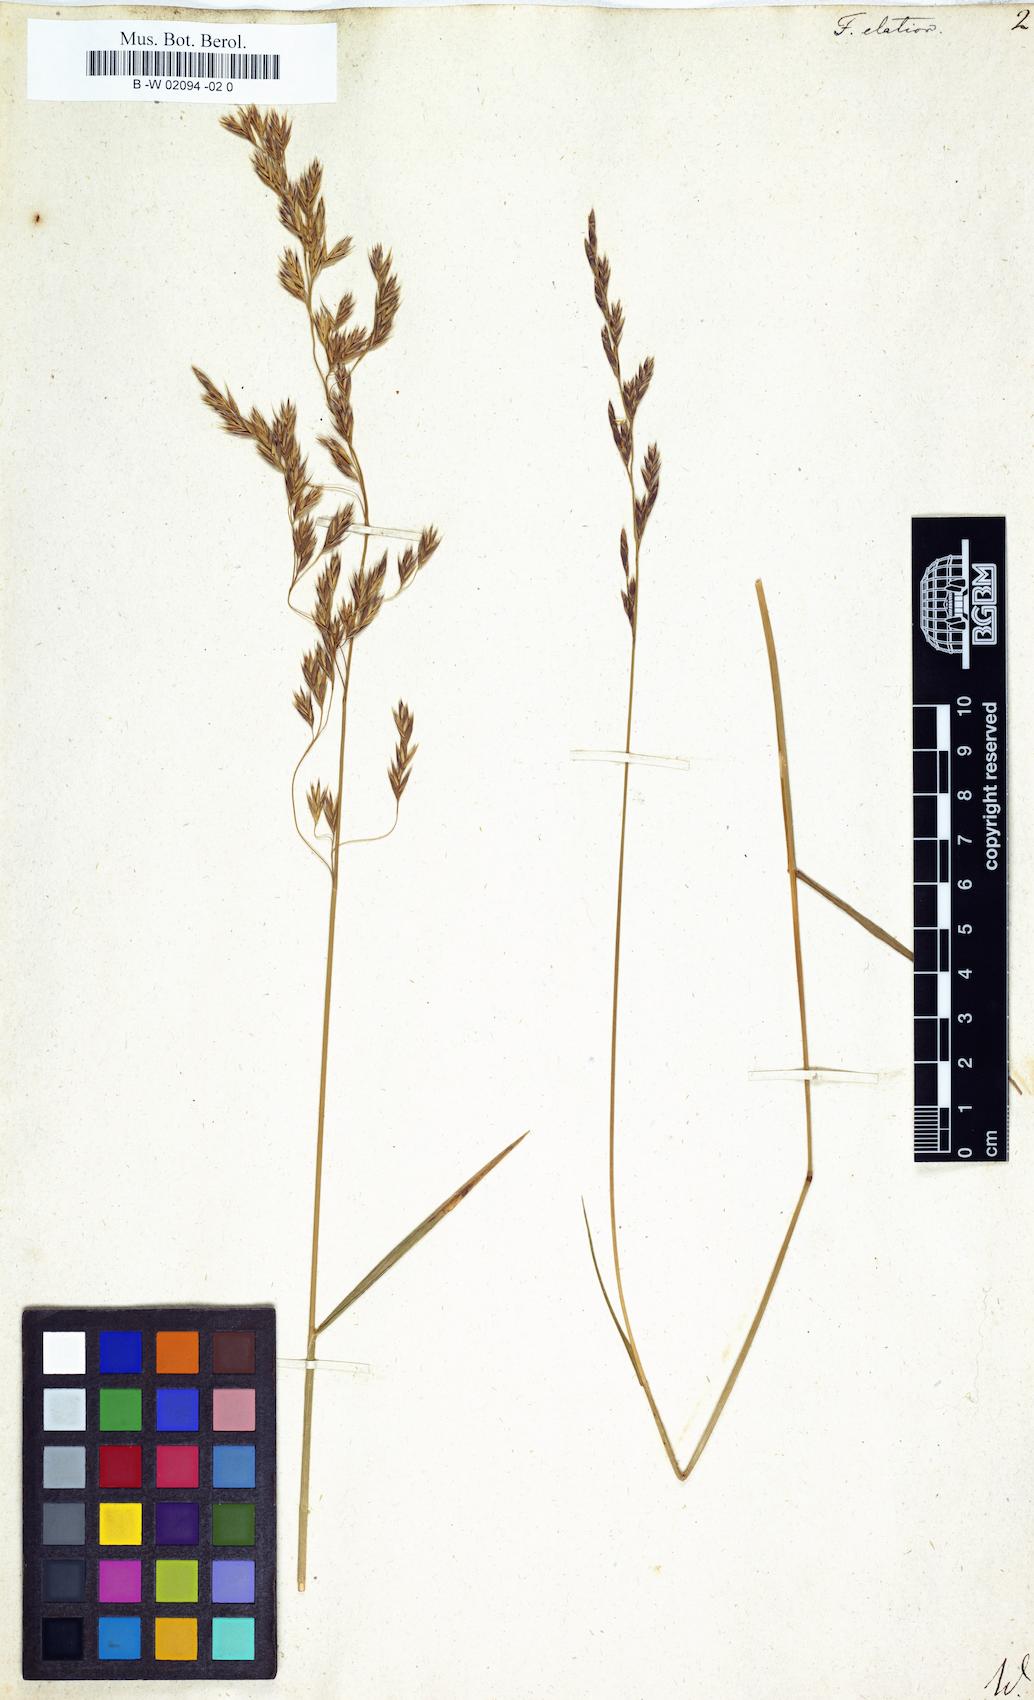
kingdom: Plantae
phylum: Tracheophyta
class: Liliopsida
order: Poales
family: Poaceae
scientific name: Poaceae
